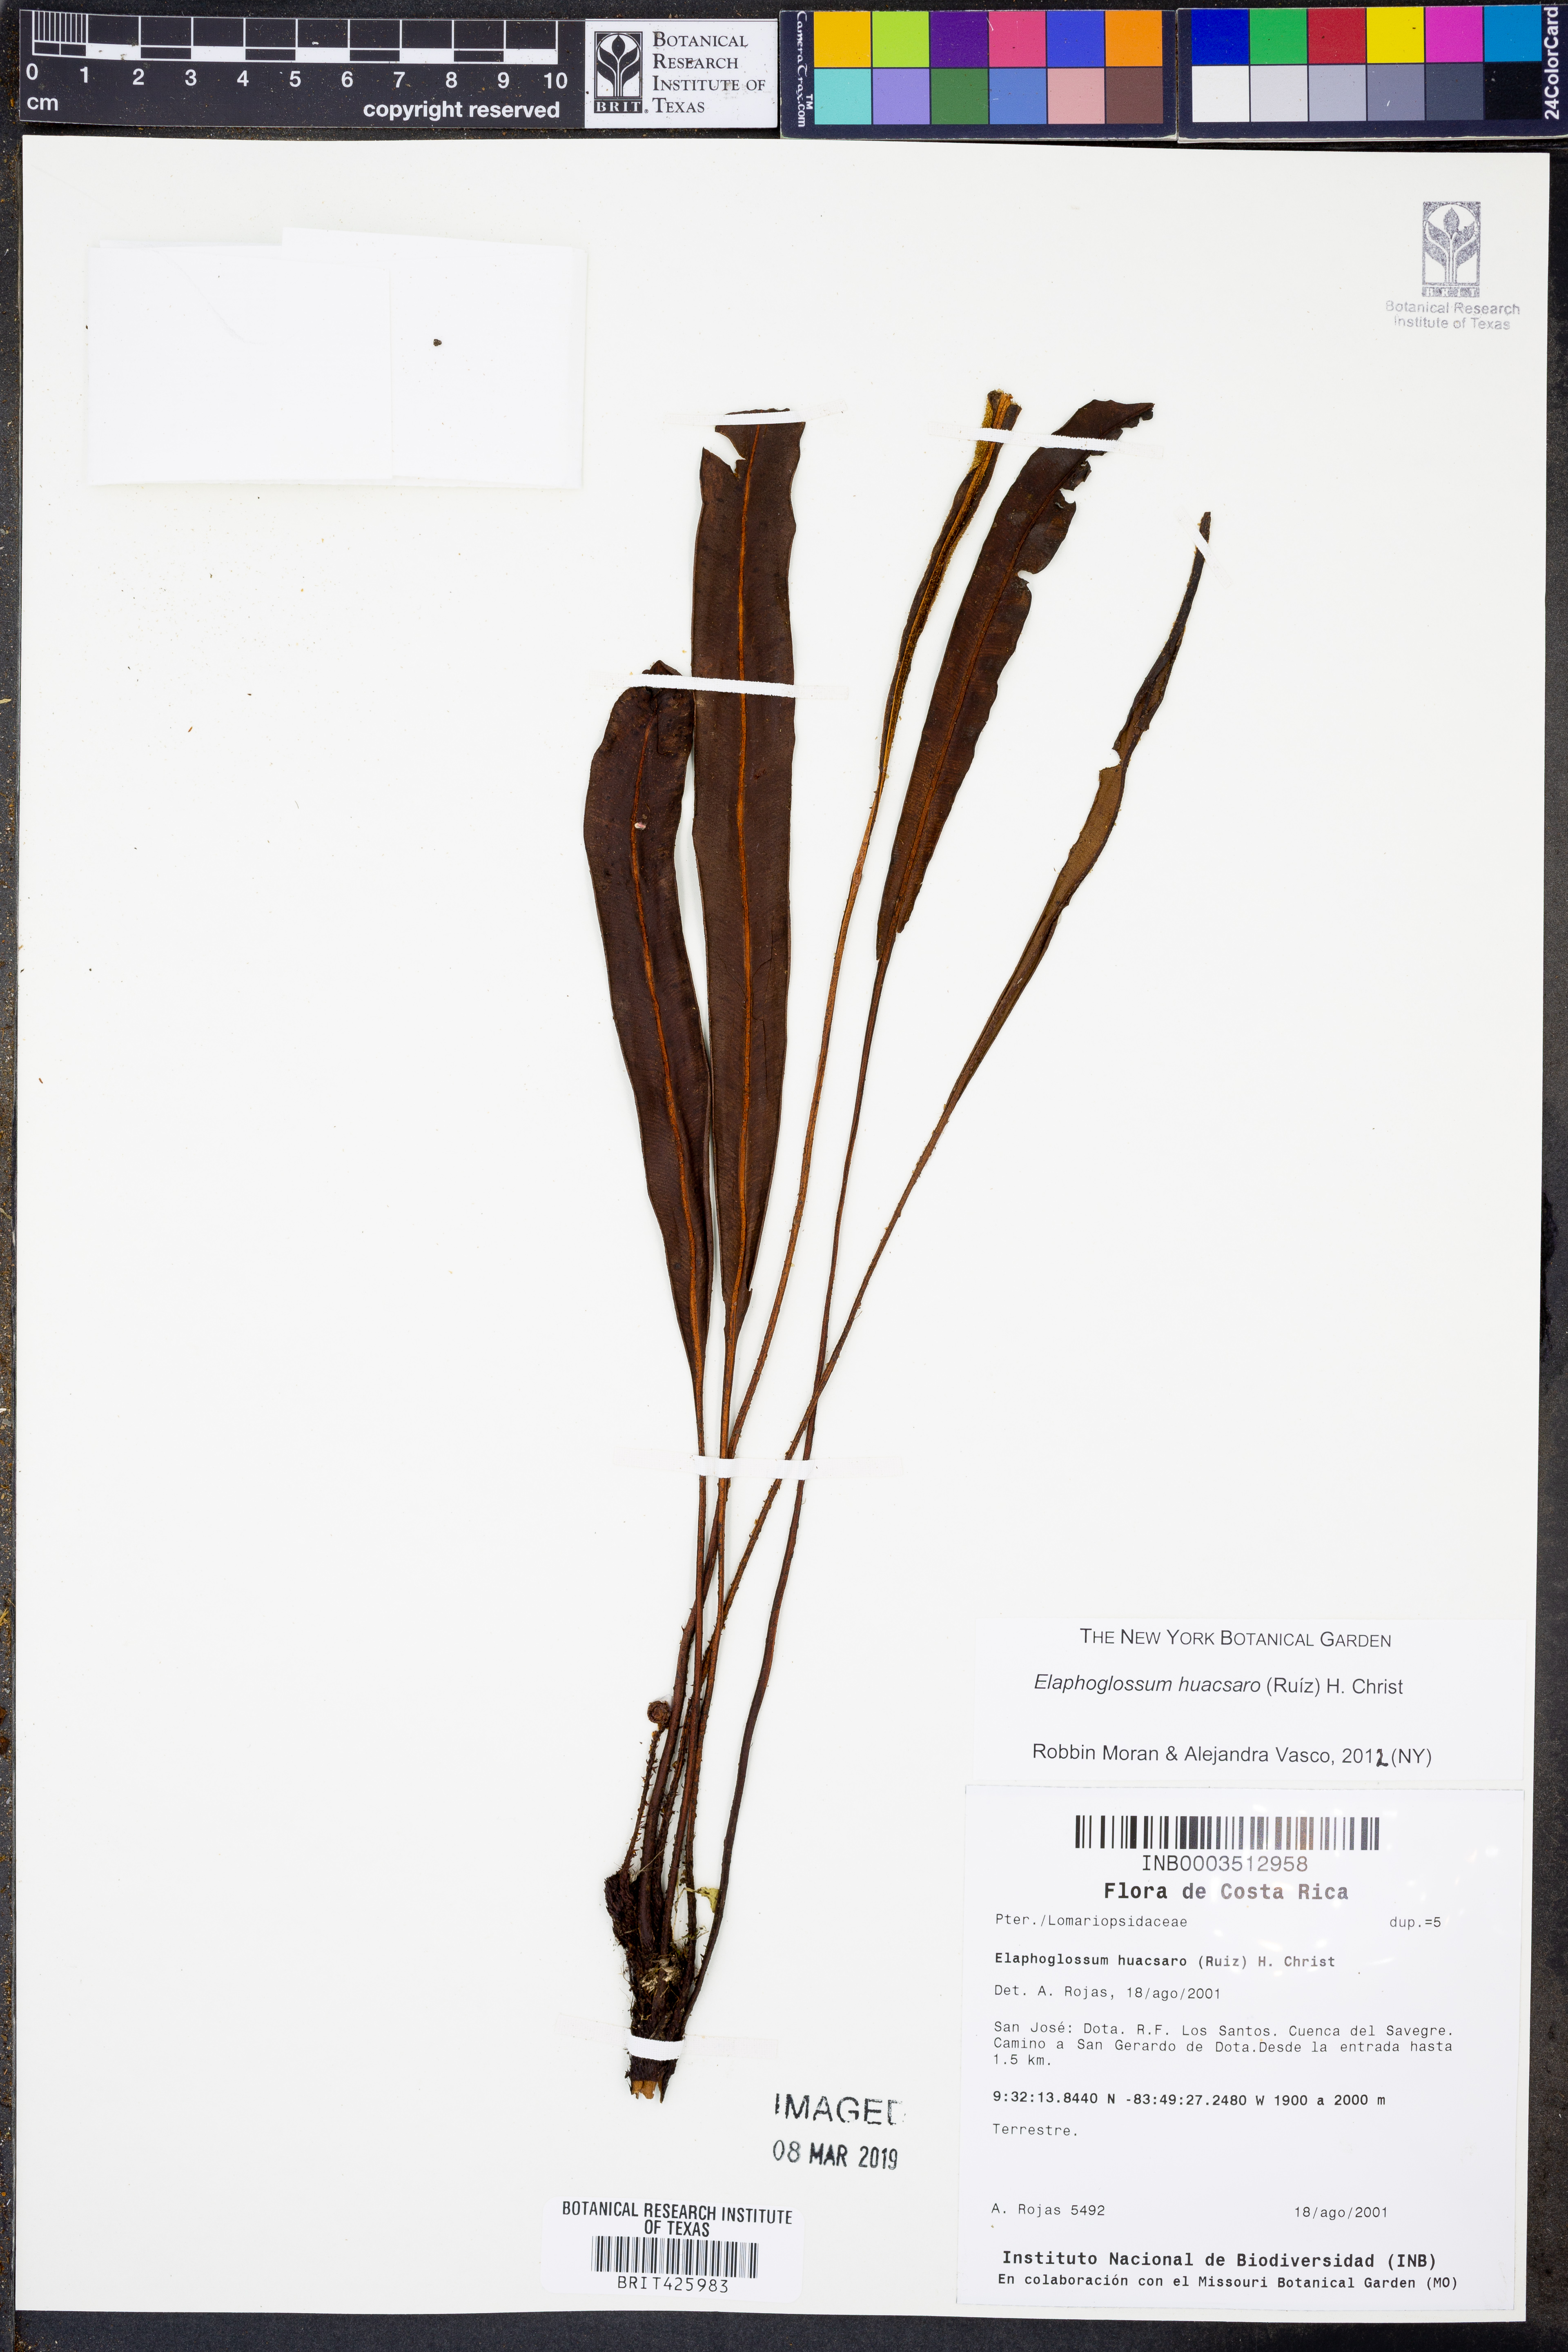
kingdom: Plantae
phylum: Tracheophyta
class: Polypodiopsida
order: Polypodiales
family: Dryopteridaceae
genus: Elaphoglossum
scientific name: Elaphoglossum huacsaro
